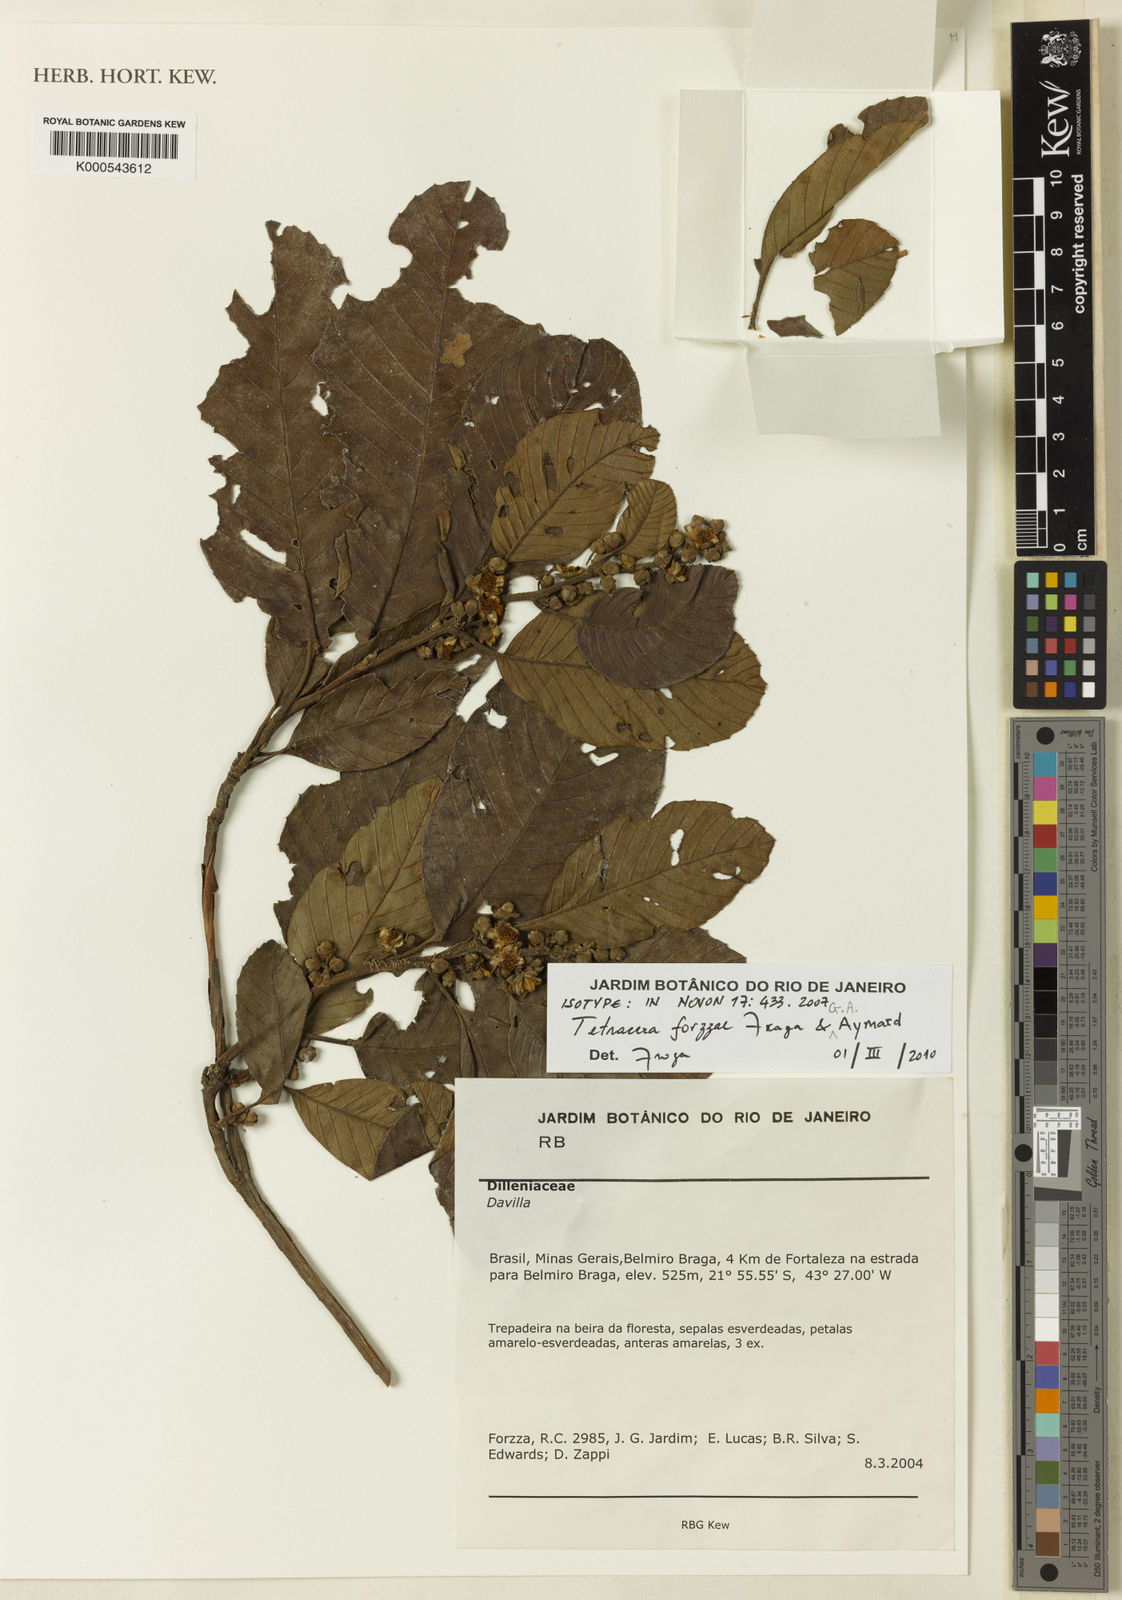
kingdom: Plantae
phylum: Tracheophyta
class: Magnoliopsida
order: Dilleniales
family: Dilleniaceae
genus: Tetracera
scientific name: Tetracera forzzae
